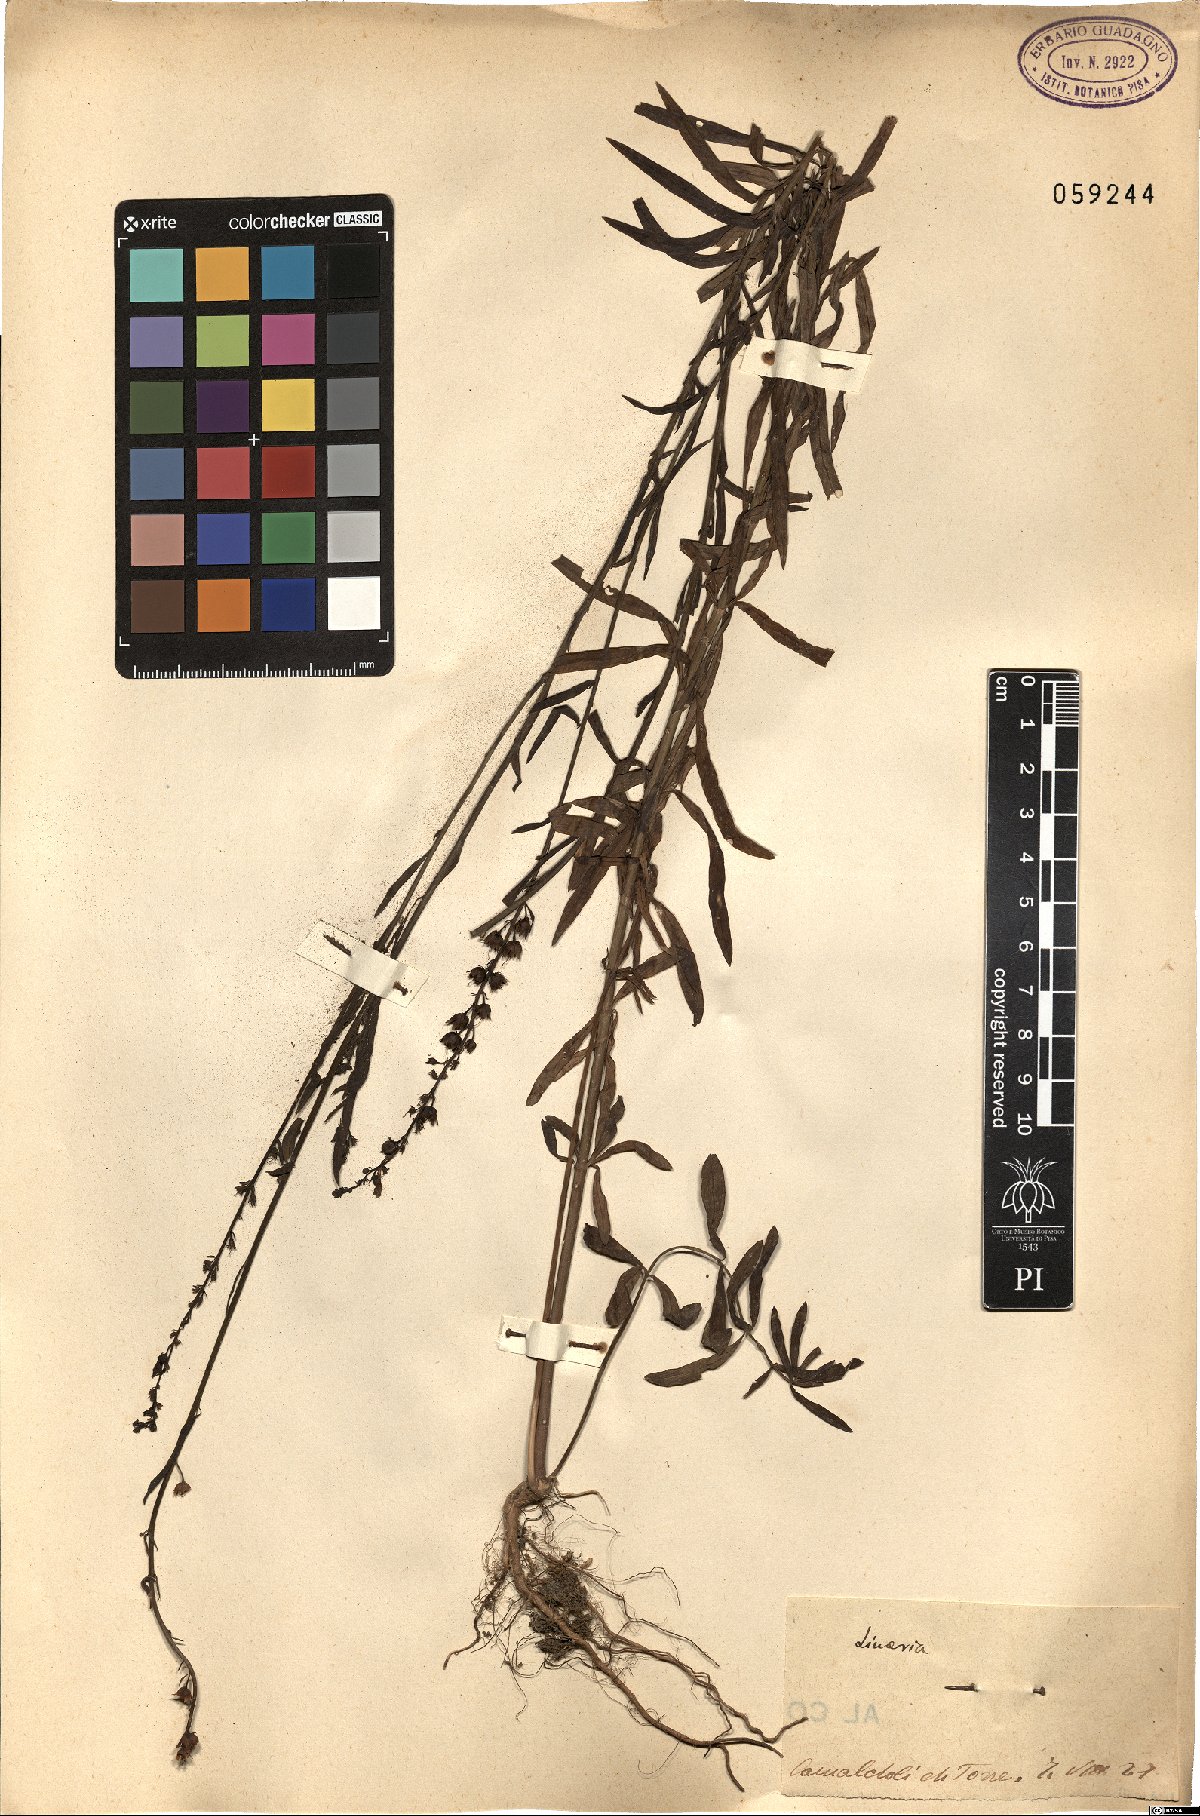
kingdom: Plantae
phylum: Tracheophyta
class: Magnoliopsida
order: Lamiales
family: Plantaginaceae
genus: Linaria
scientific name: Linaria
